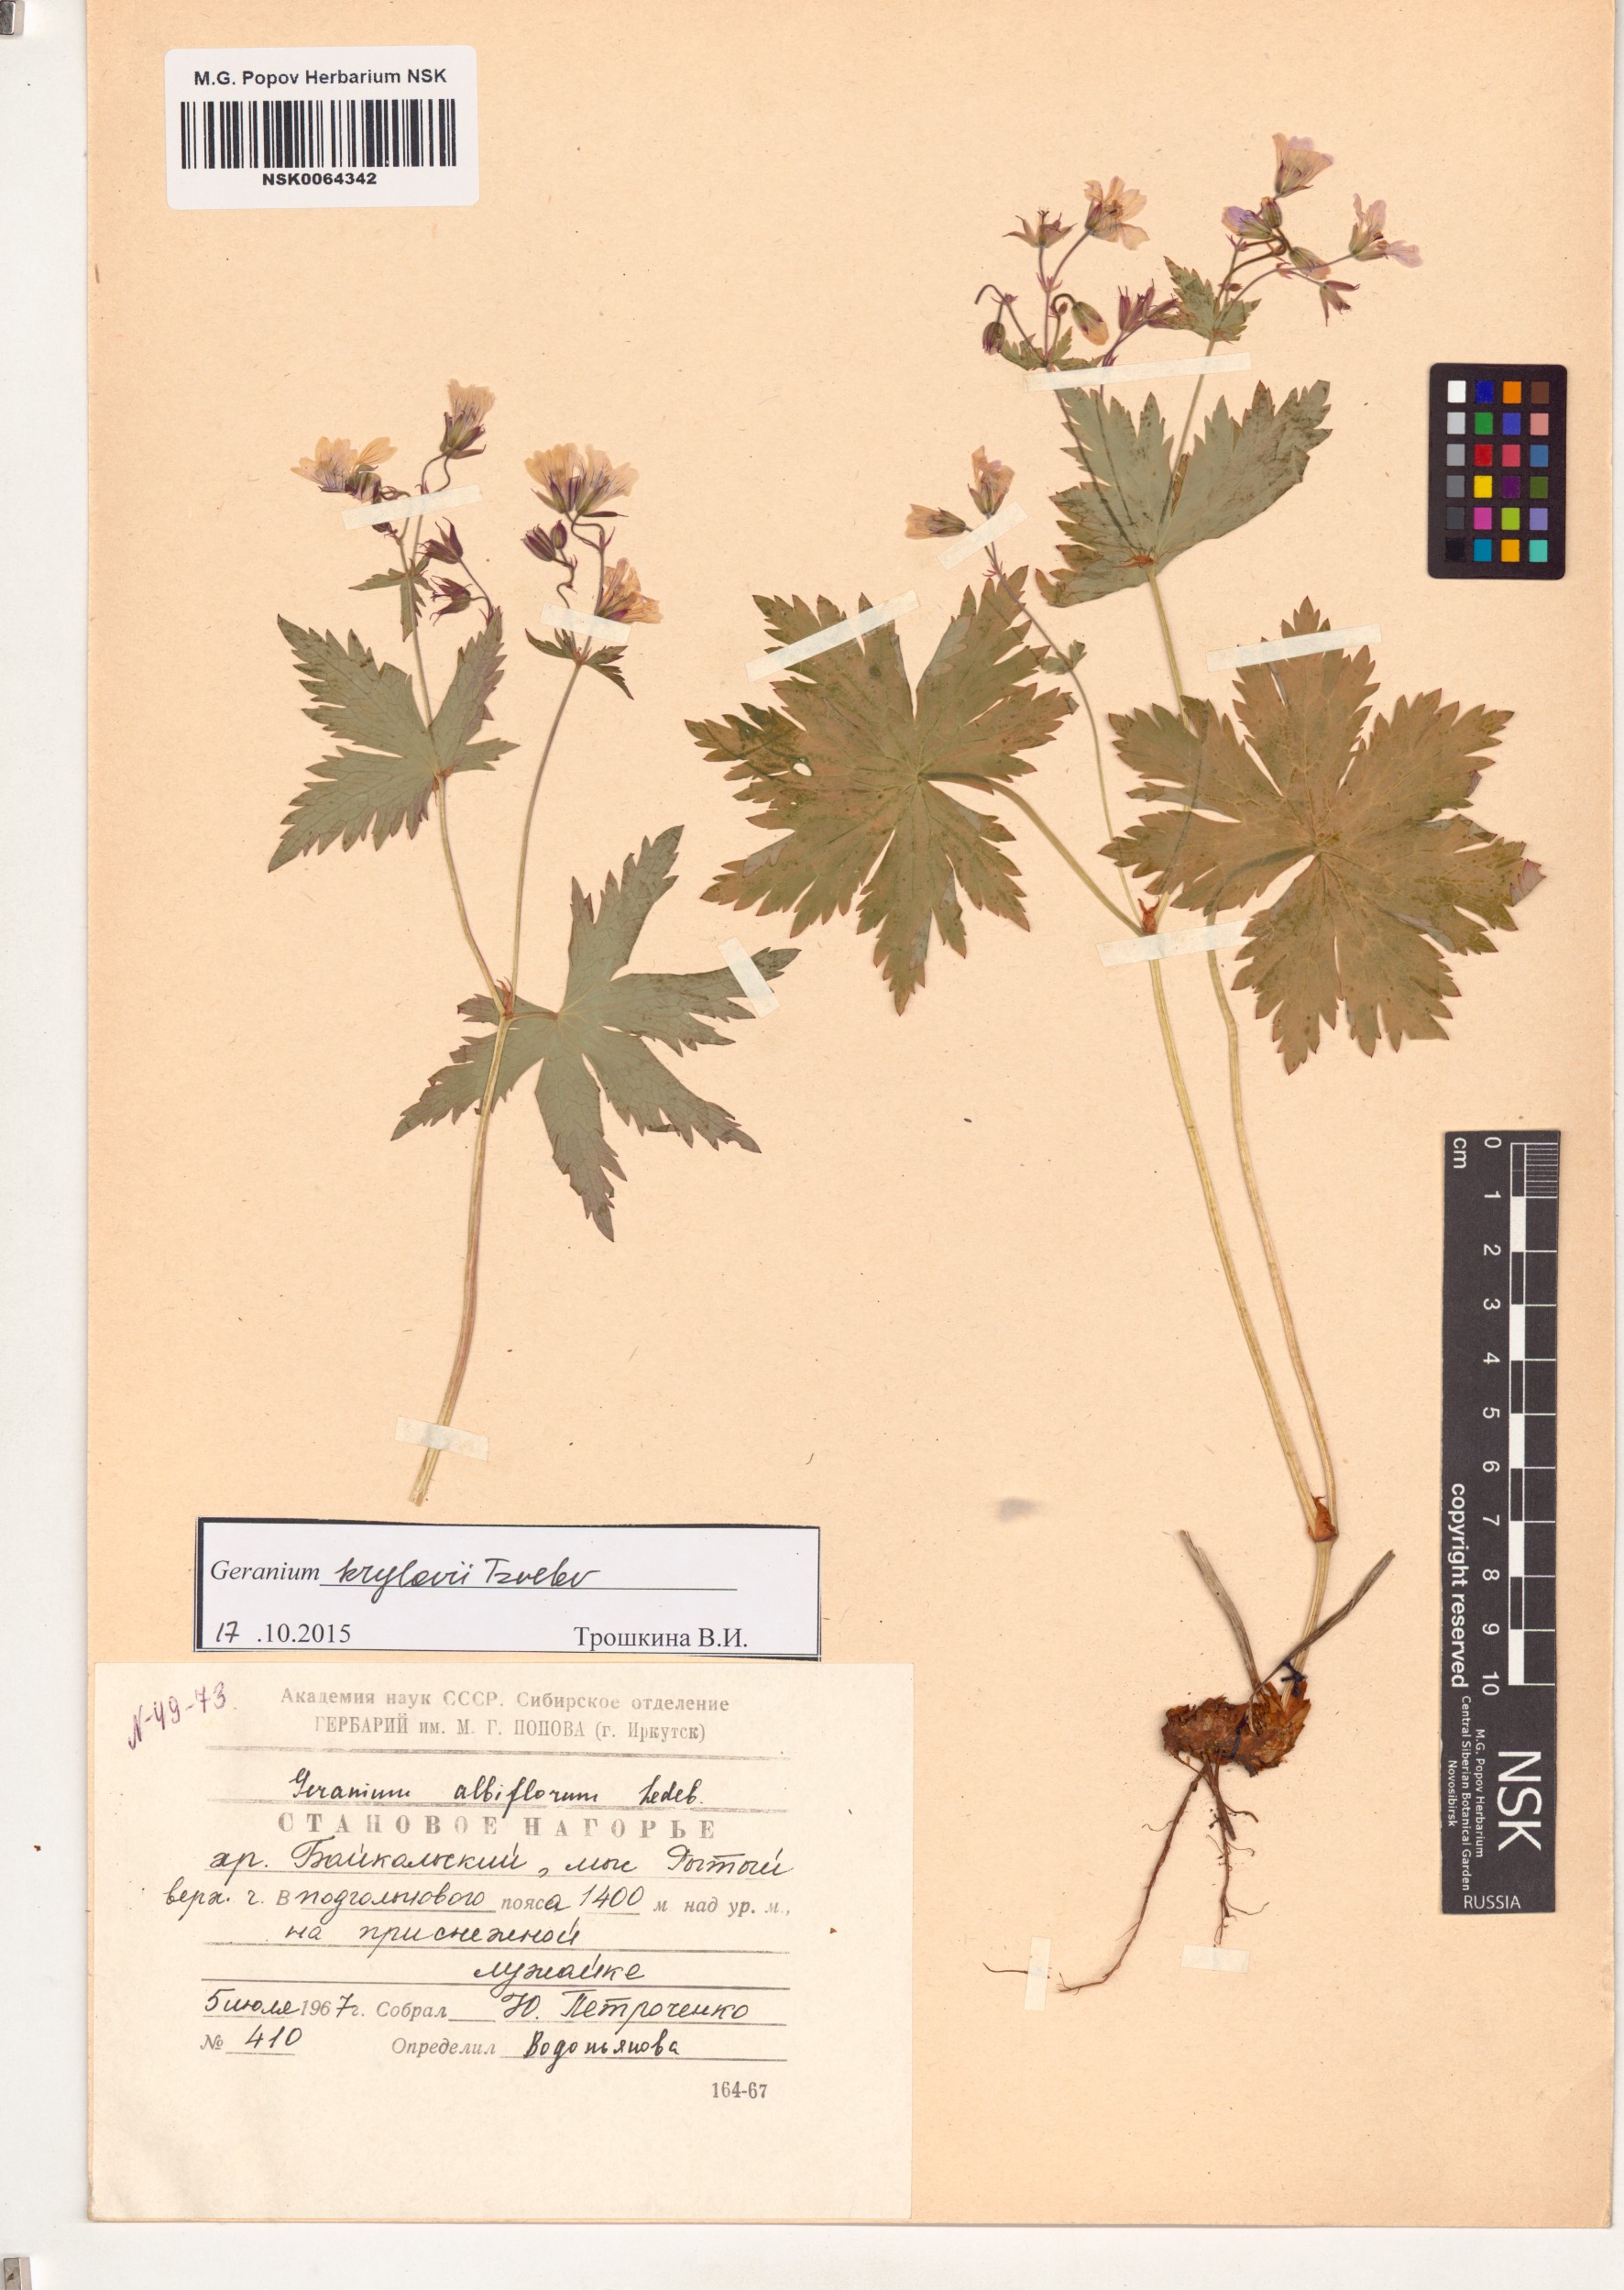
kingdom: Plantae
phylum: Tracheophyta
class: Magnoliopsida
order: Geraniales
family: Geraniaceae
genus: Geranium
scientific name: Geranium sylvaticum
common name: Wood crane's-bill
